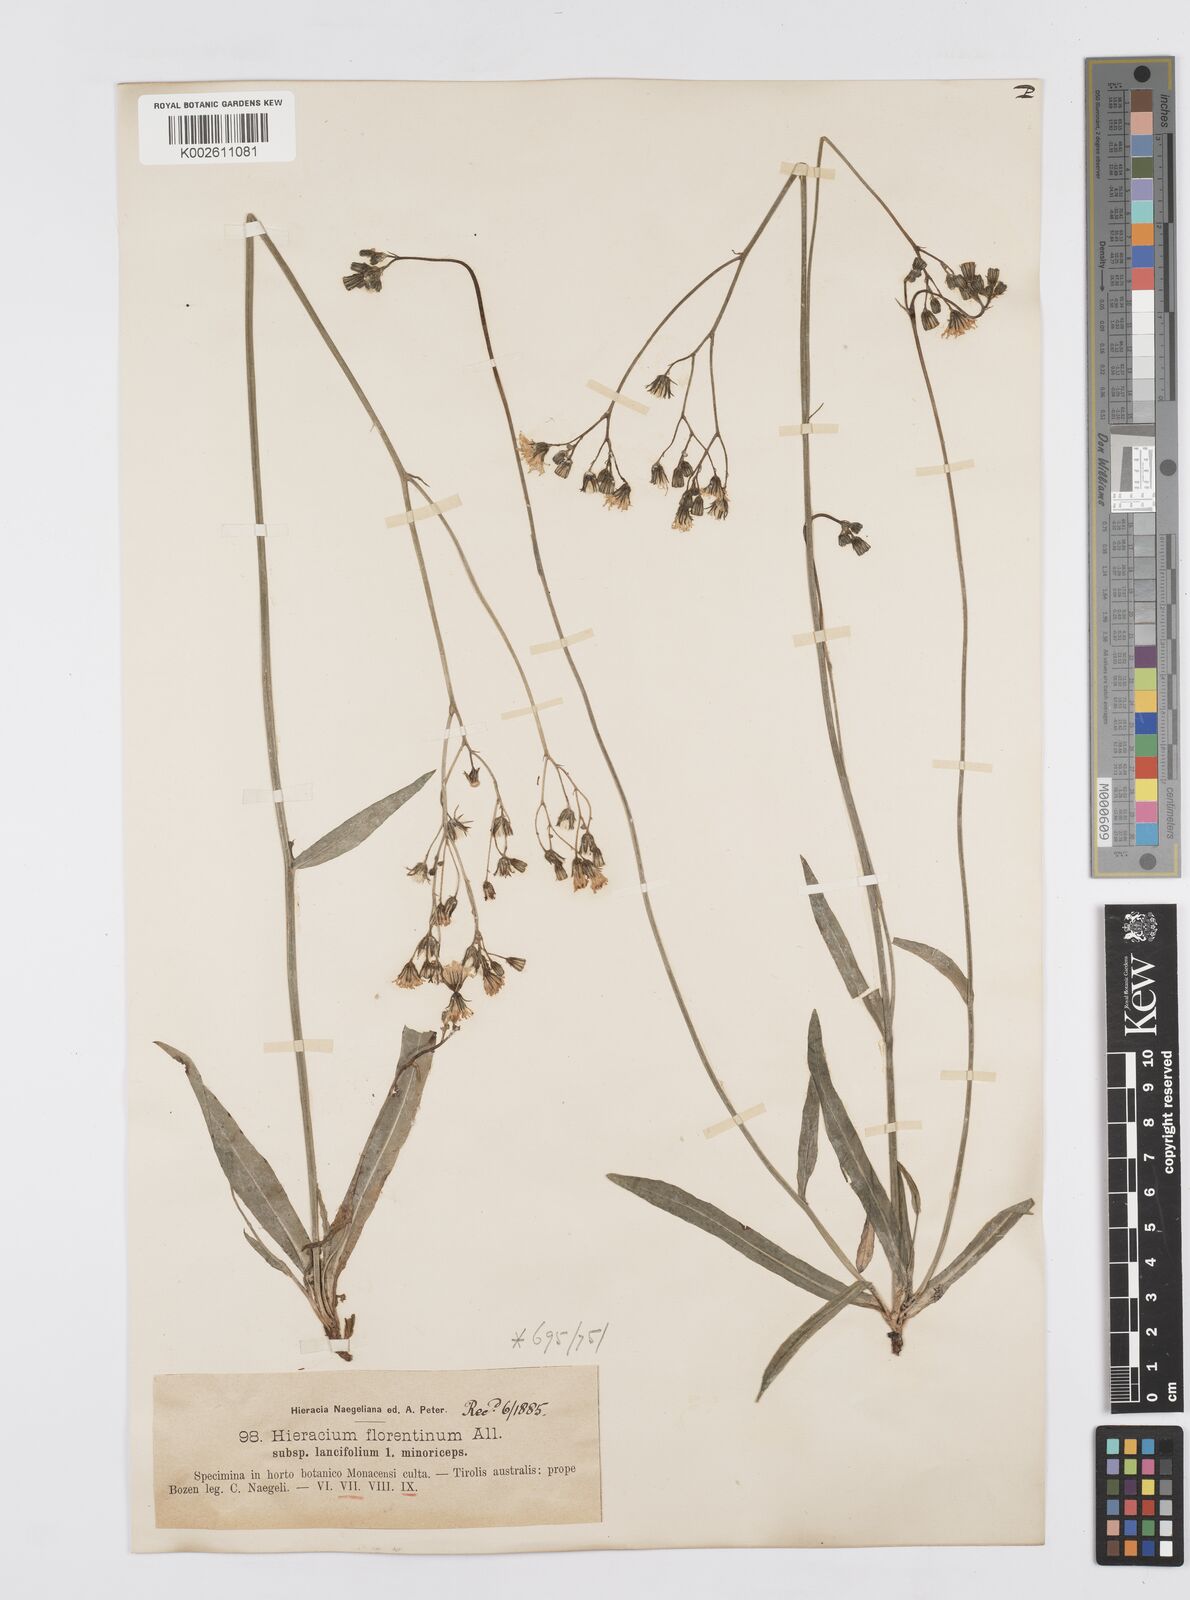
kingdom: Plantae
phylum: Tracheophyta
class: Magnoliopsida
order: Asterales
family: Asteraceae
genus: Pilosella
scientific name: Pilosella piloselloides
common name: Glaucous king-devil
